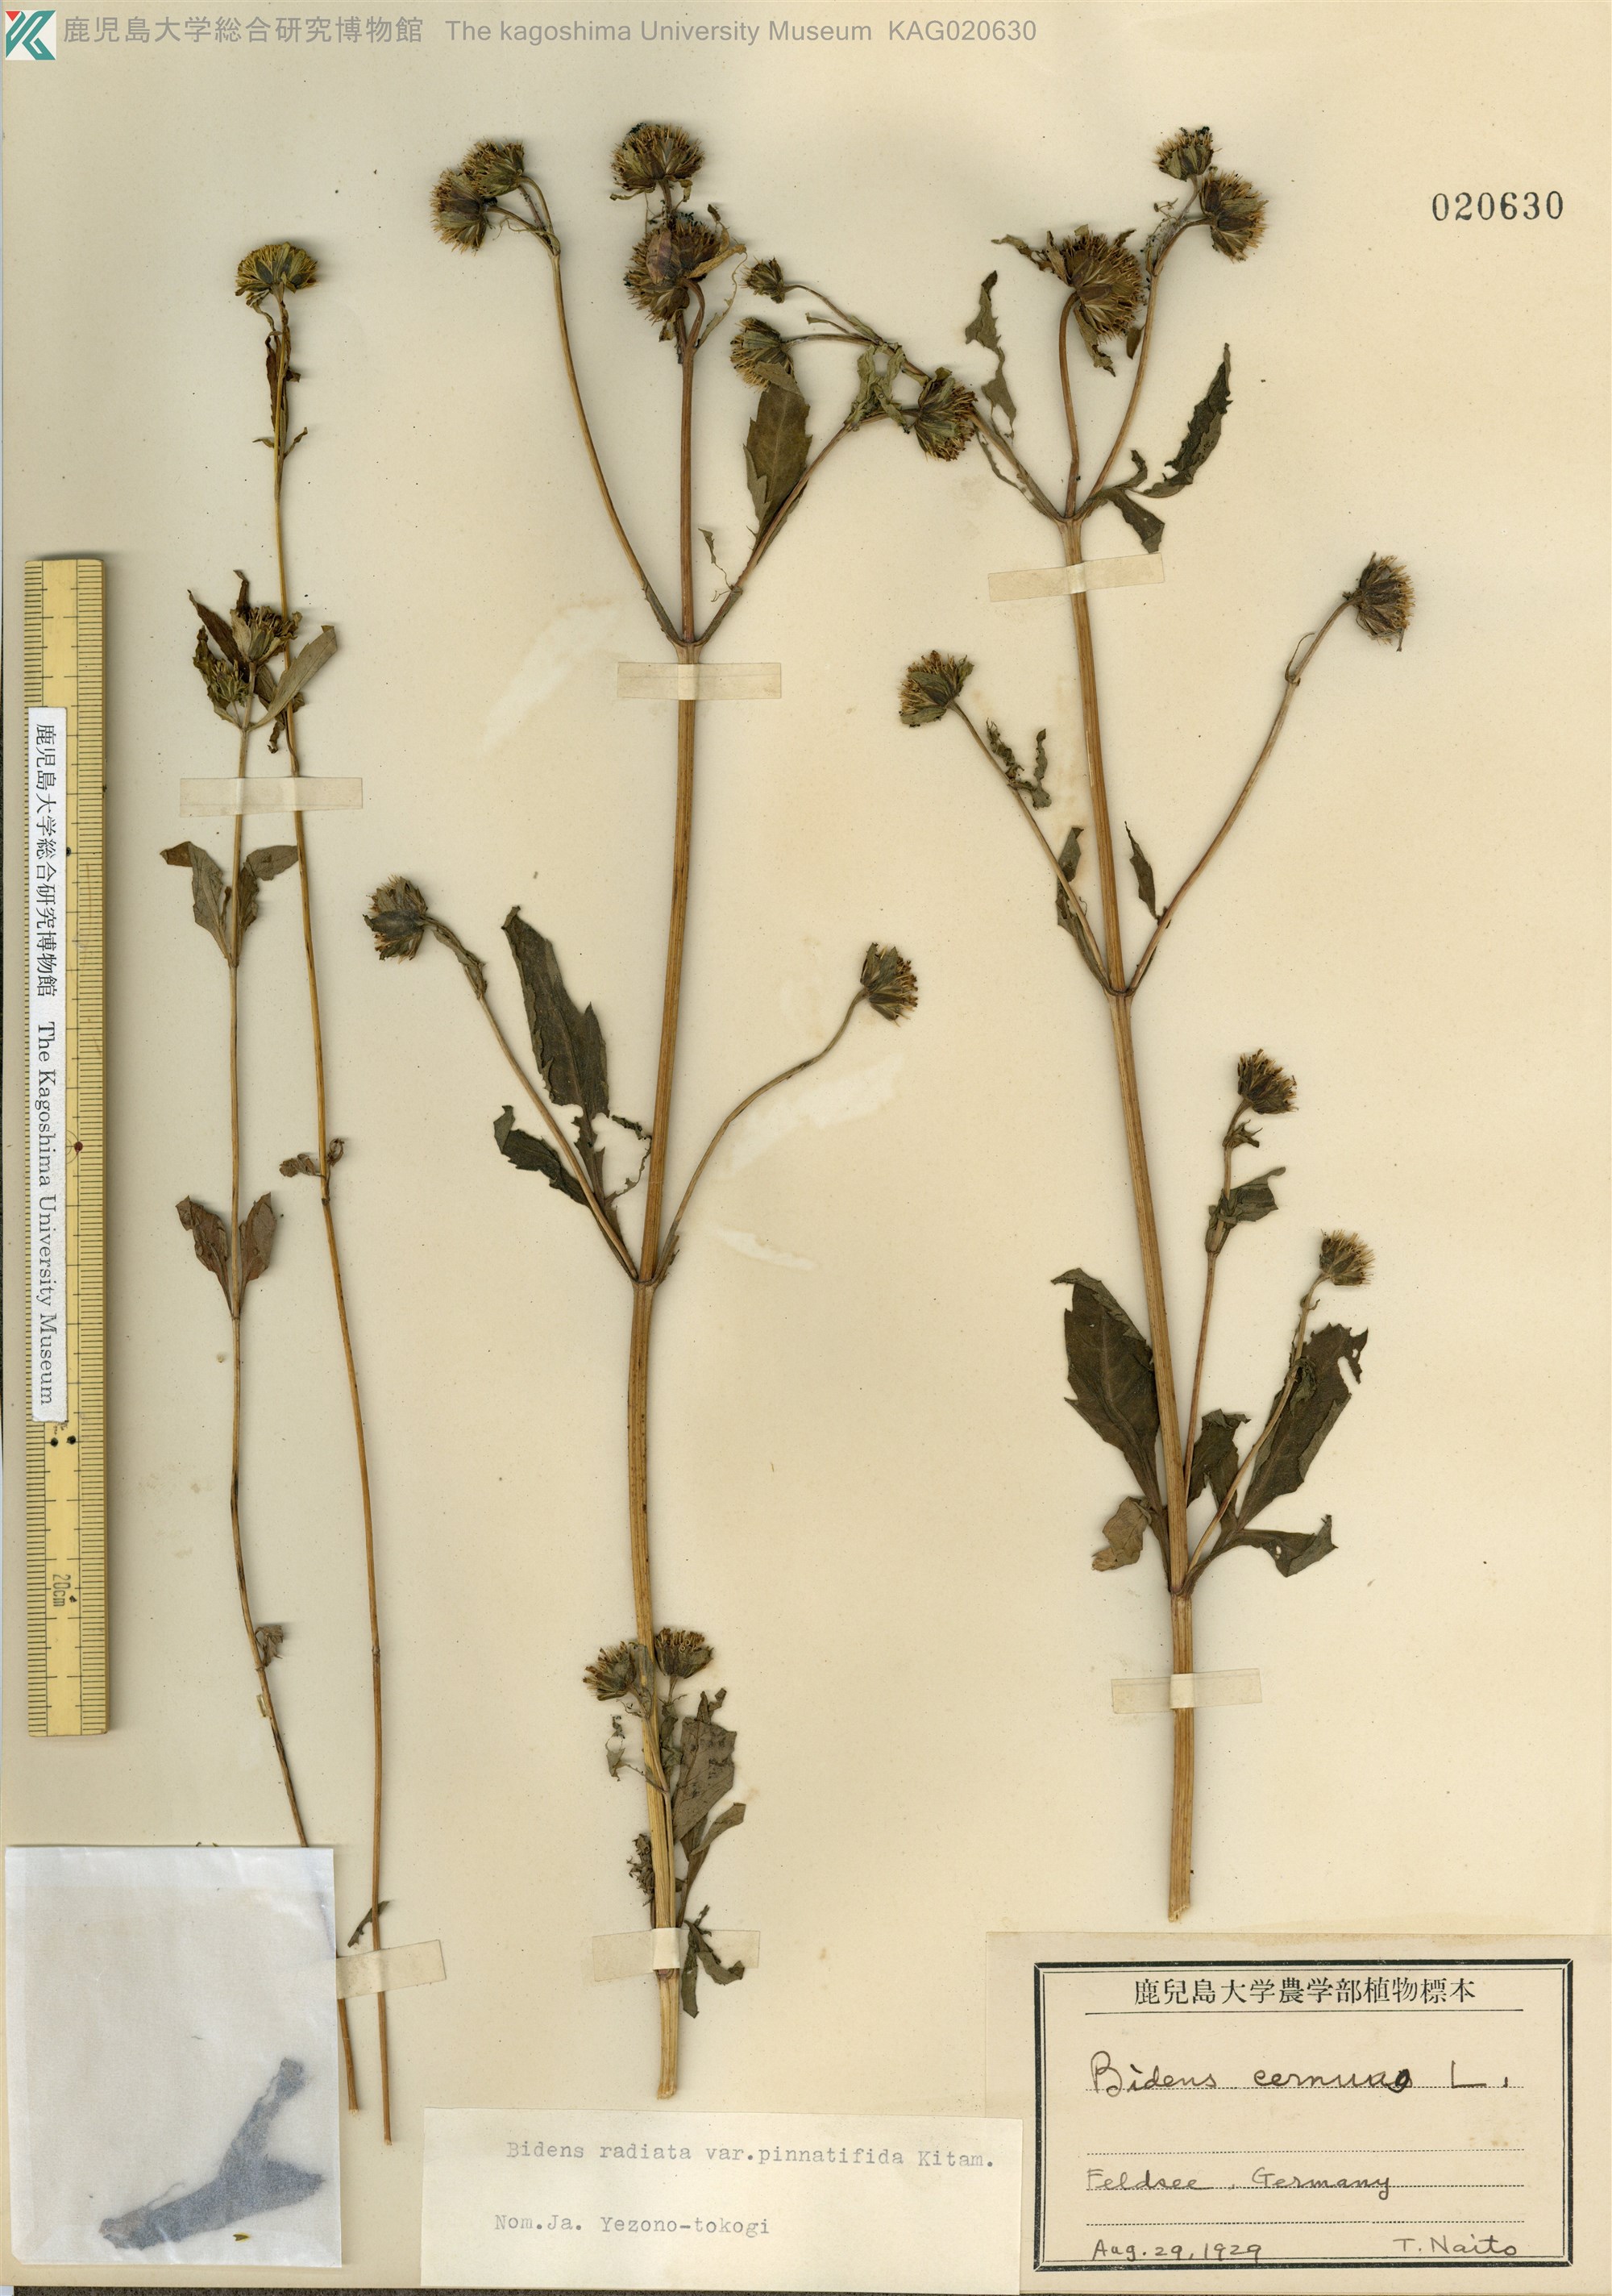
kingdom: Plantae
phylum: Tracheophyta
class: Magnoliopsida
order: Asterales
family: Asteraceae
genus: Bidens
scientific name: Bidens maximowicziana
